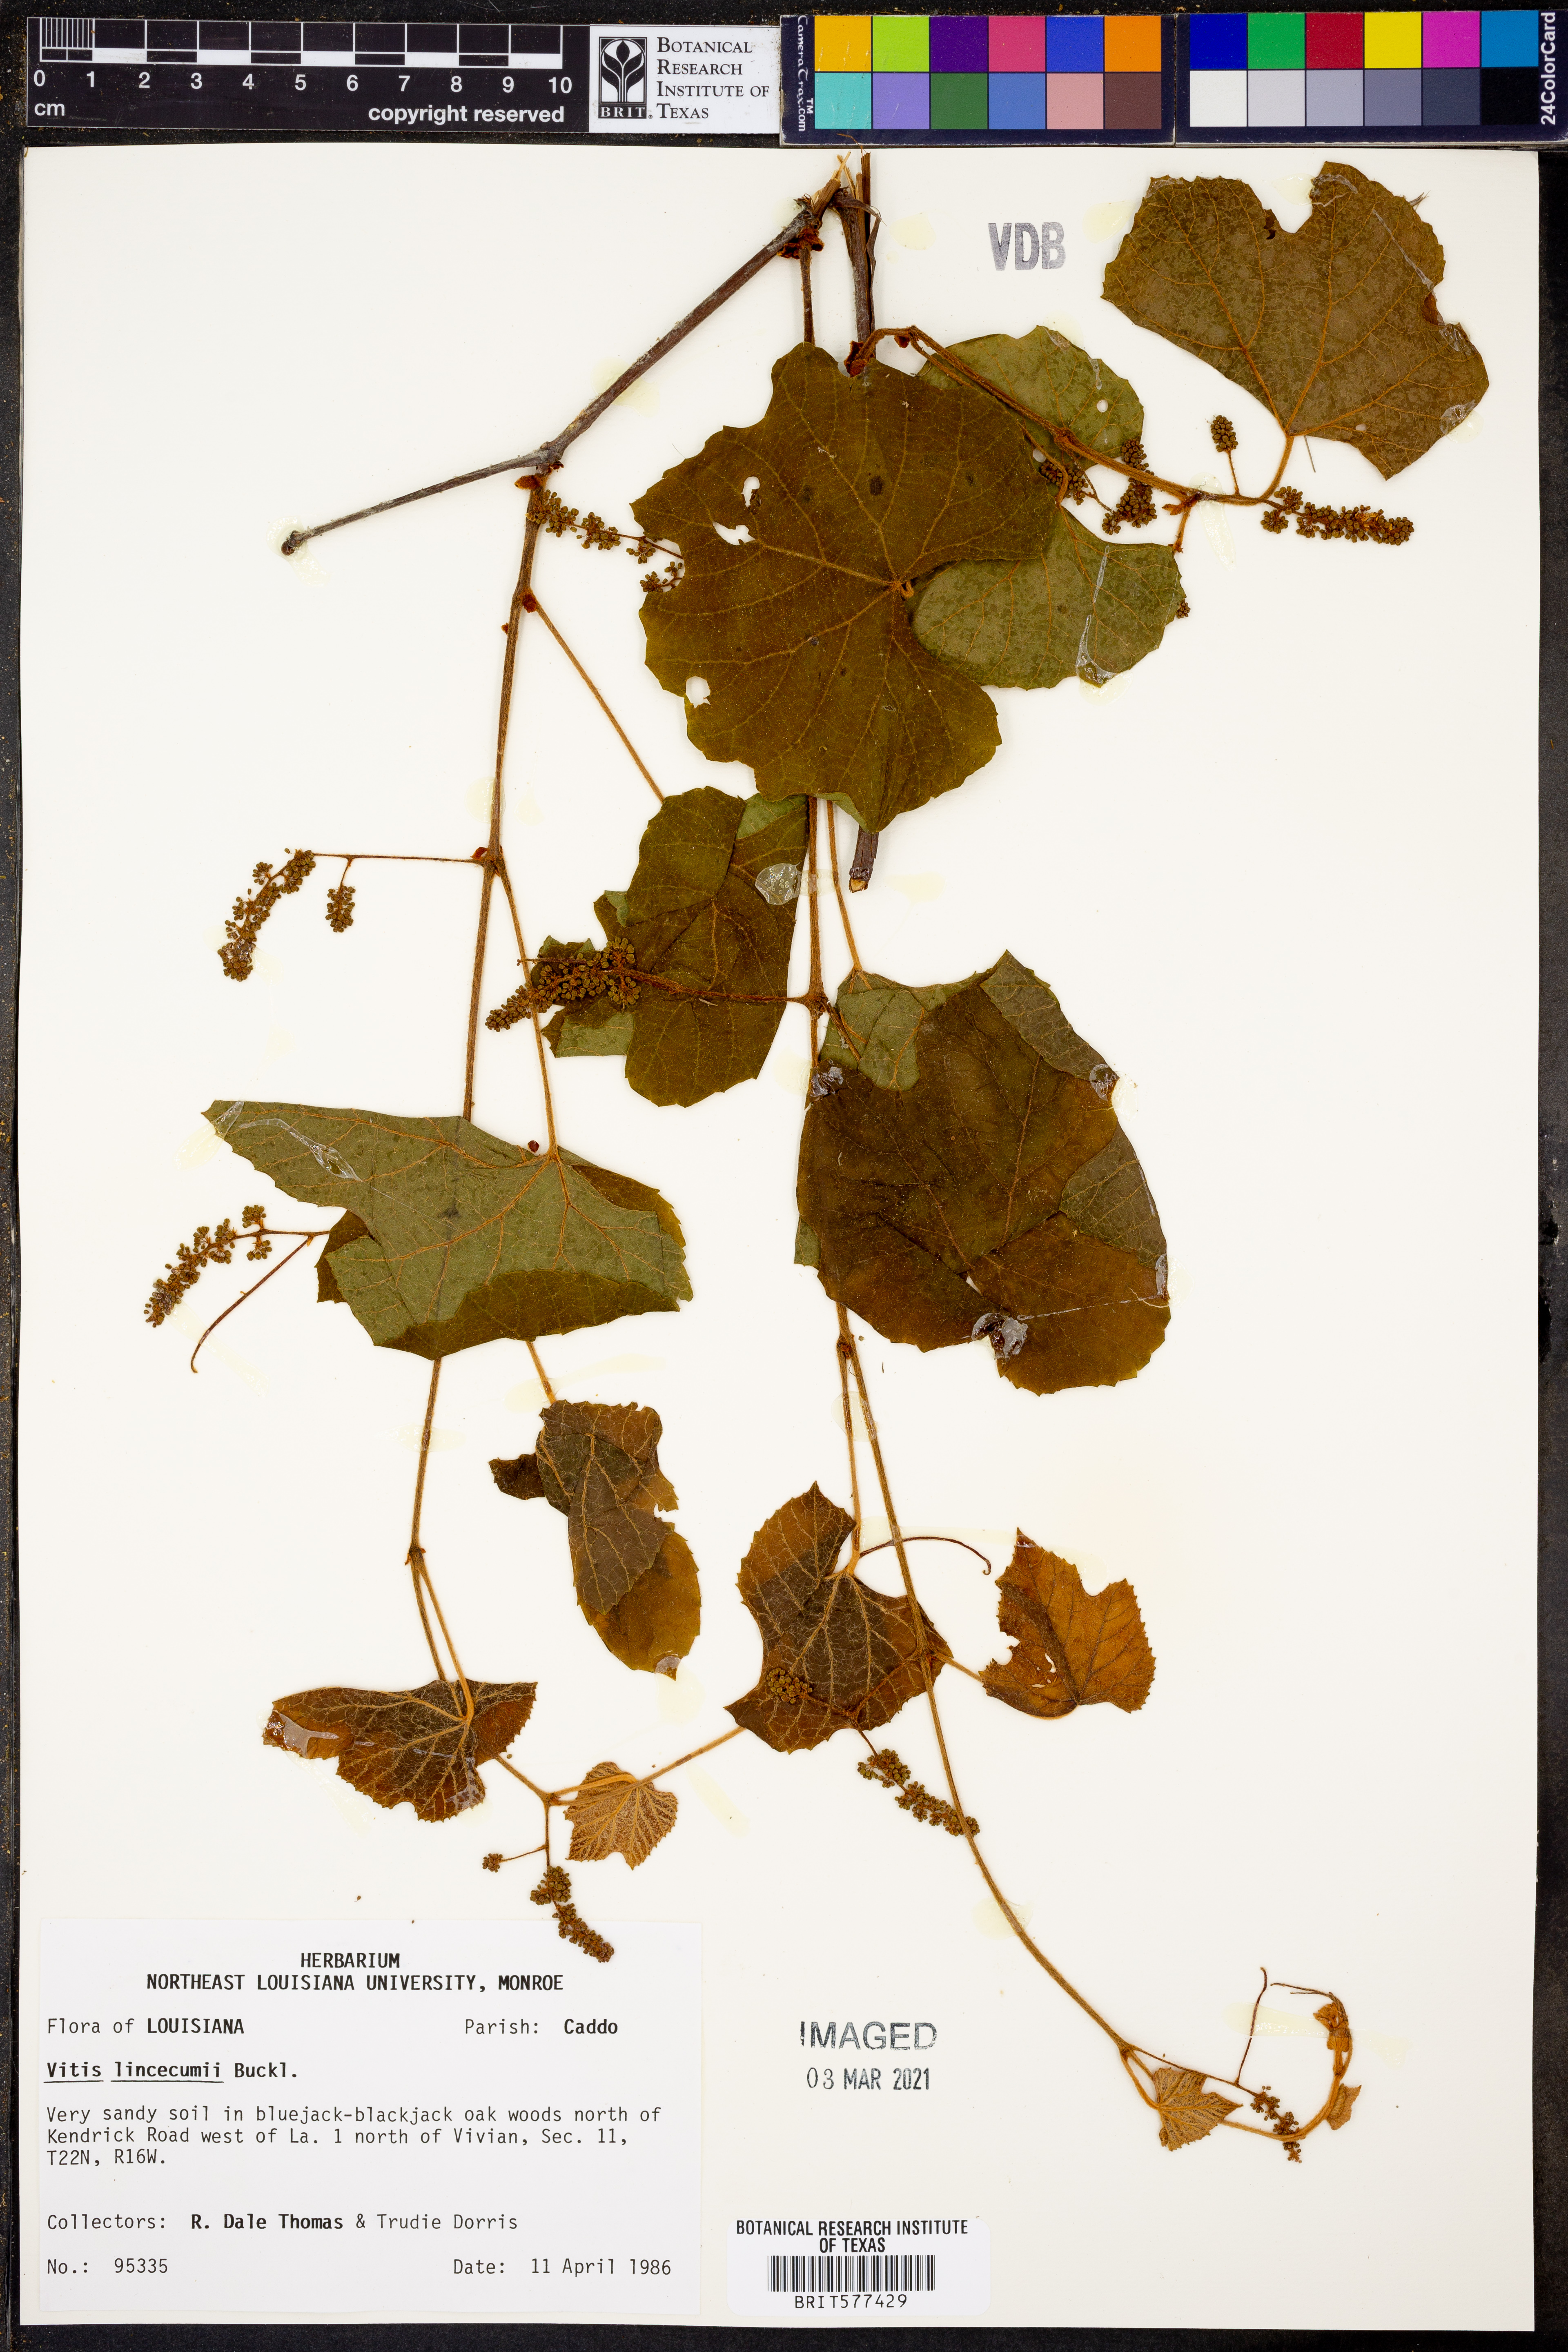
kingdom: Plantae
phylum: Tracheophyta
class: Magnoliopsida
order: Vitales
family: Vitaceae
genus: Vitis
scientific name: Vitis aestivalis
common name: Pigeon grape
